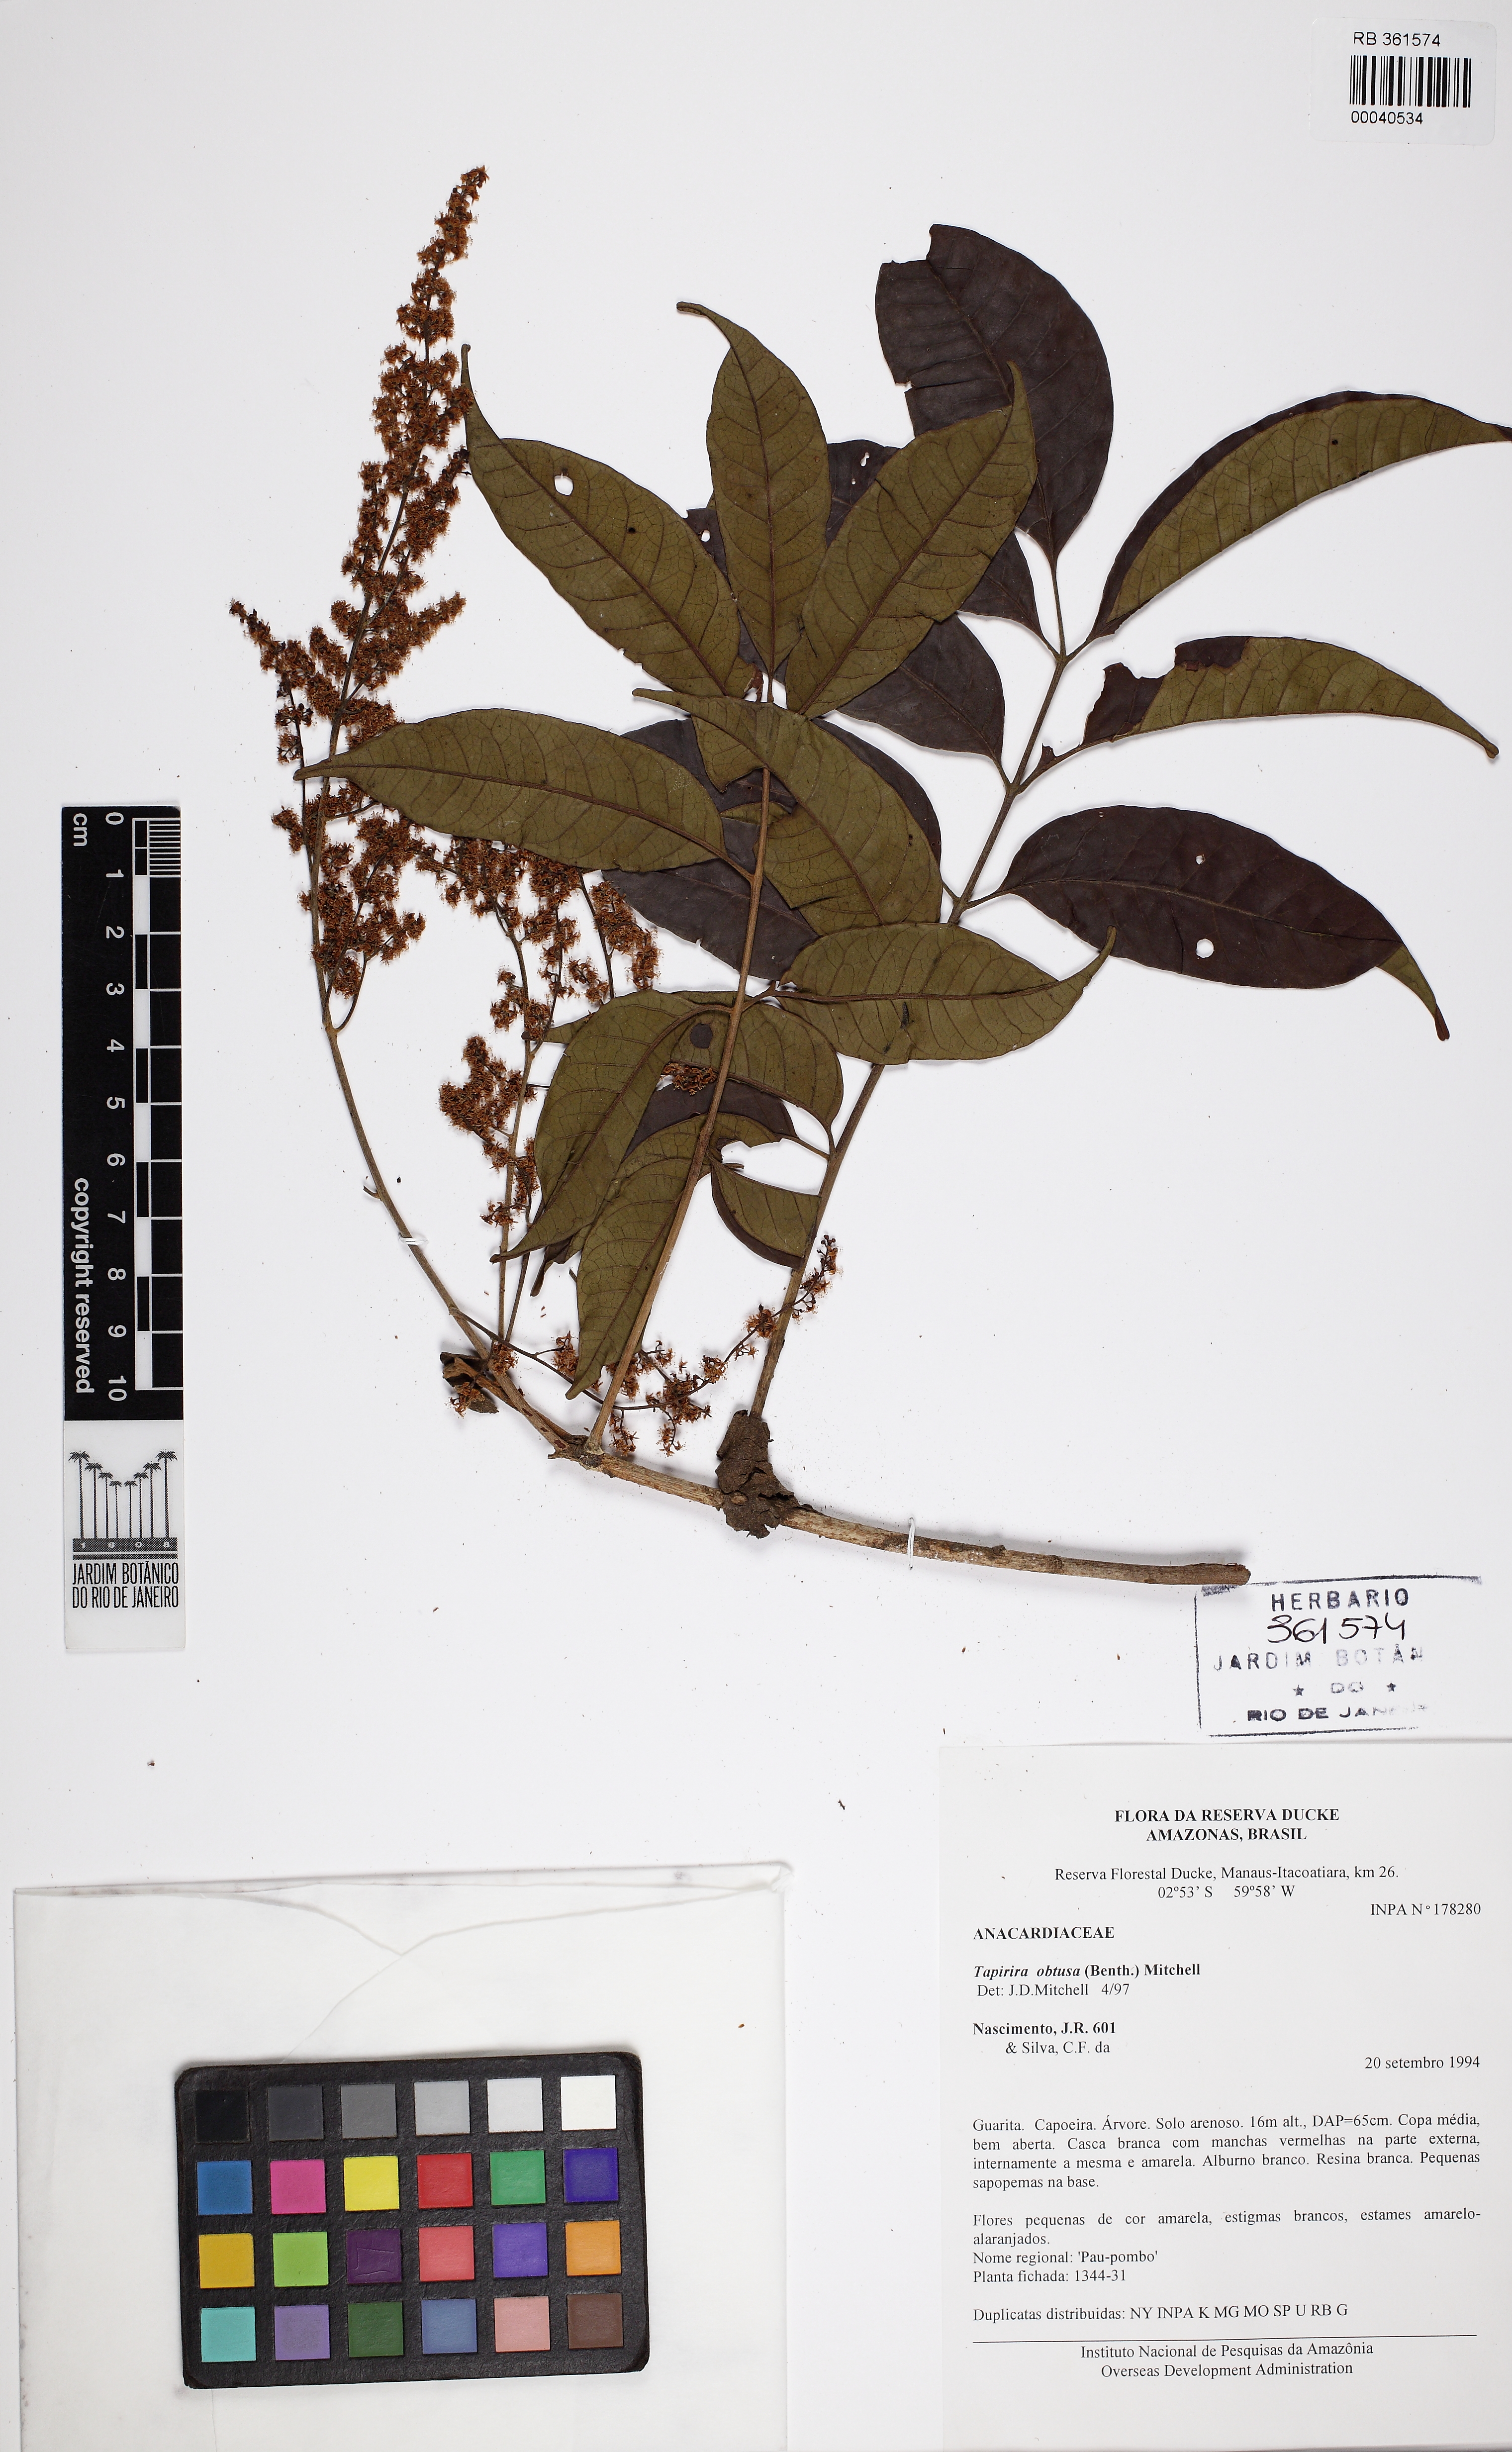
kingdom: Plantae
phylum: Tracheophyta
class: Magnoliopsida
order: Sapindales
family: Anacardiaceae
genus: Tapirira
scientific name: Tapirira obtusa
